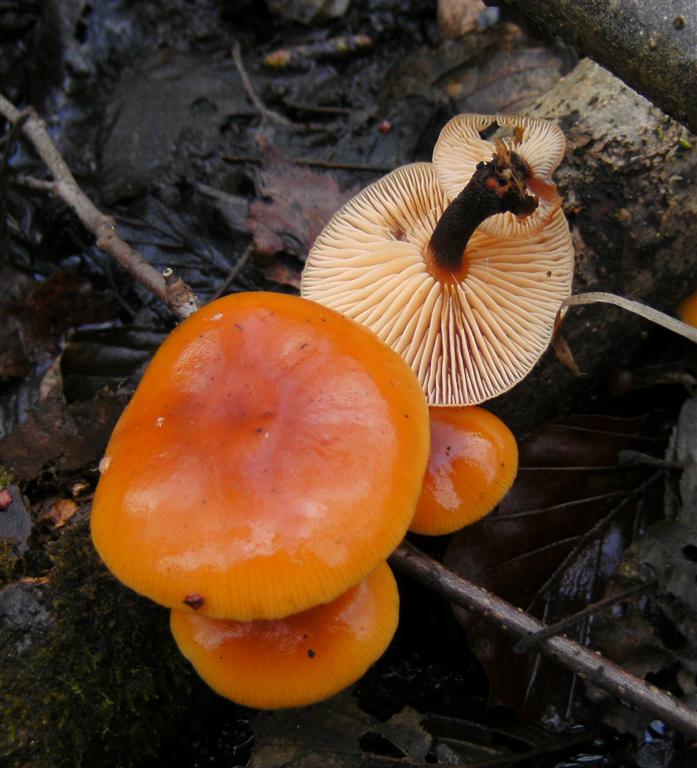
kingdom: Fungi
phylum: Basidiomycota
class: Agaricomycetes
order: Agaricales
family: Physalacriaceae
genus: Flammulina
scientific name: Flammulina velutipes
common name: gul fløjlsfod
